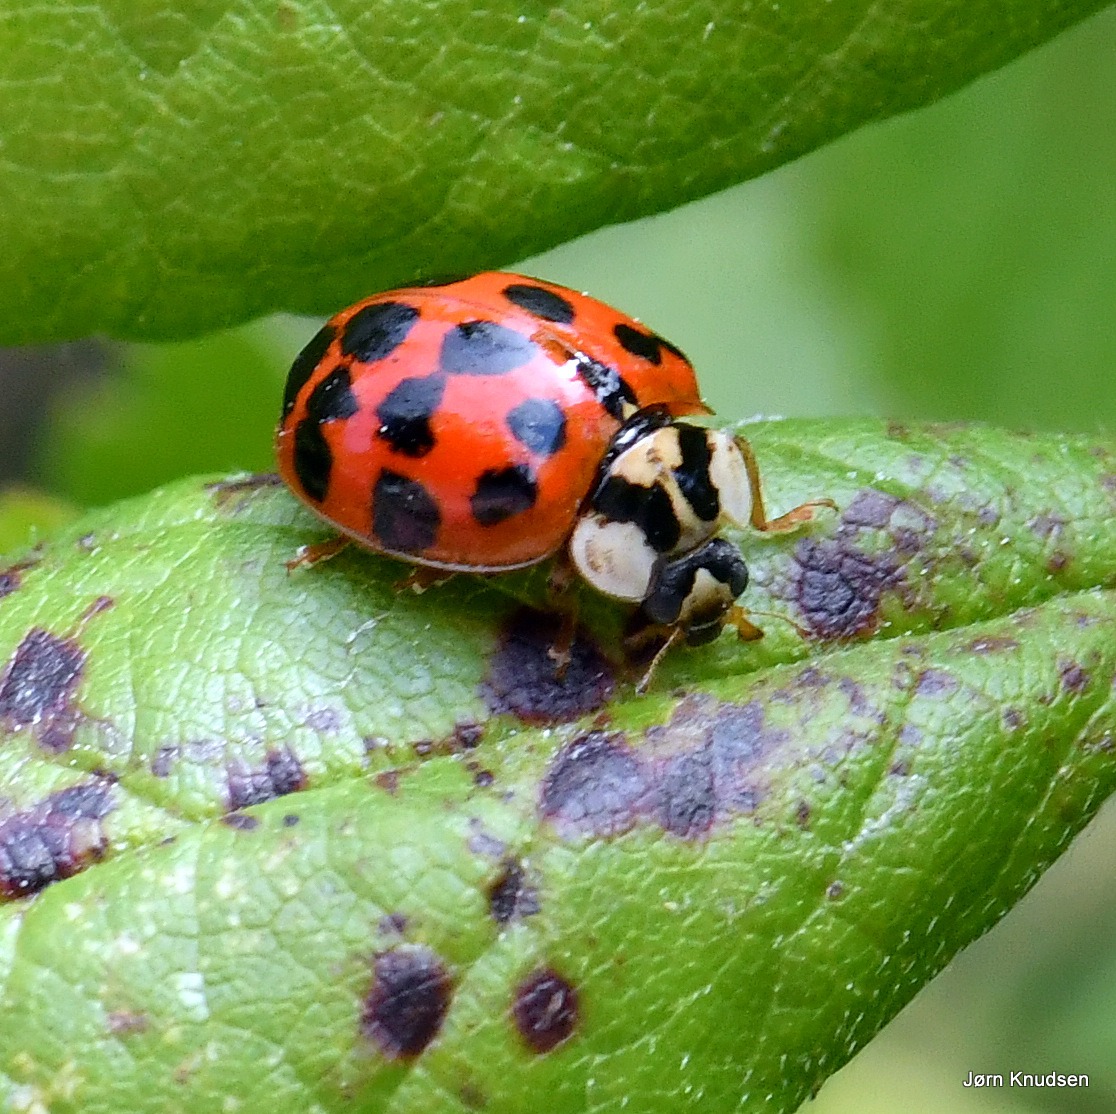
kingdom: Animalia
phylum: Arthropoda
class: Insecta
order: Coleoptera
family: Coccinellidae
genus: Harmonia
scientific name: Harmonia axyridis
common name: Harlekinmariehøne
